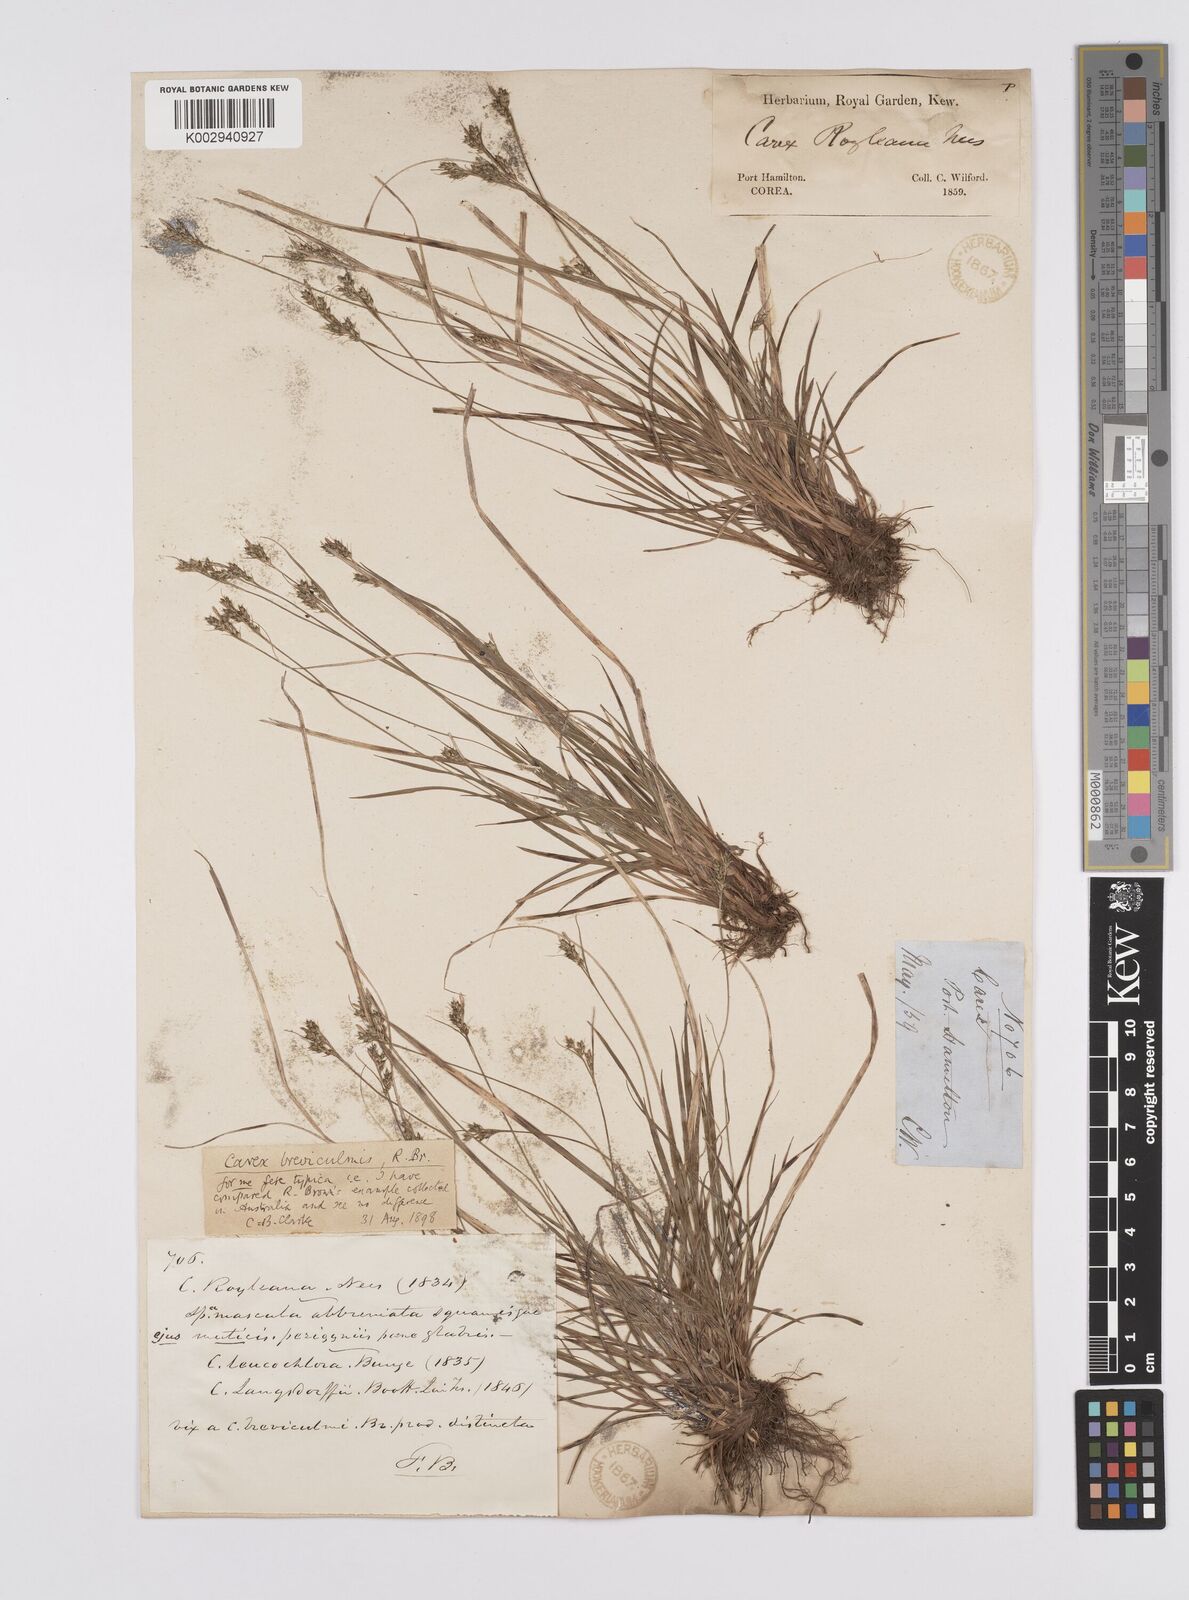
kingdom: Plantae
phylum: Tracheophyta
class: Liliopsida
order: Poales
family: Cyperaceae
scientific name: Cyperaceae
